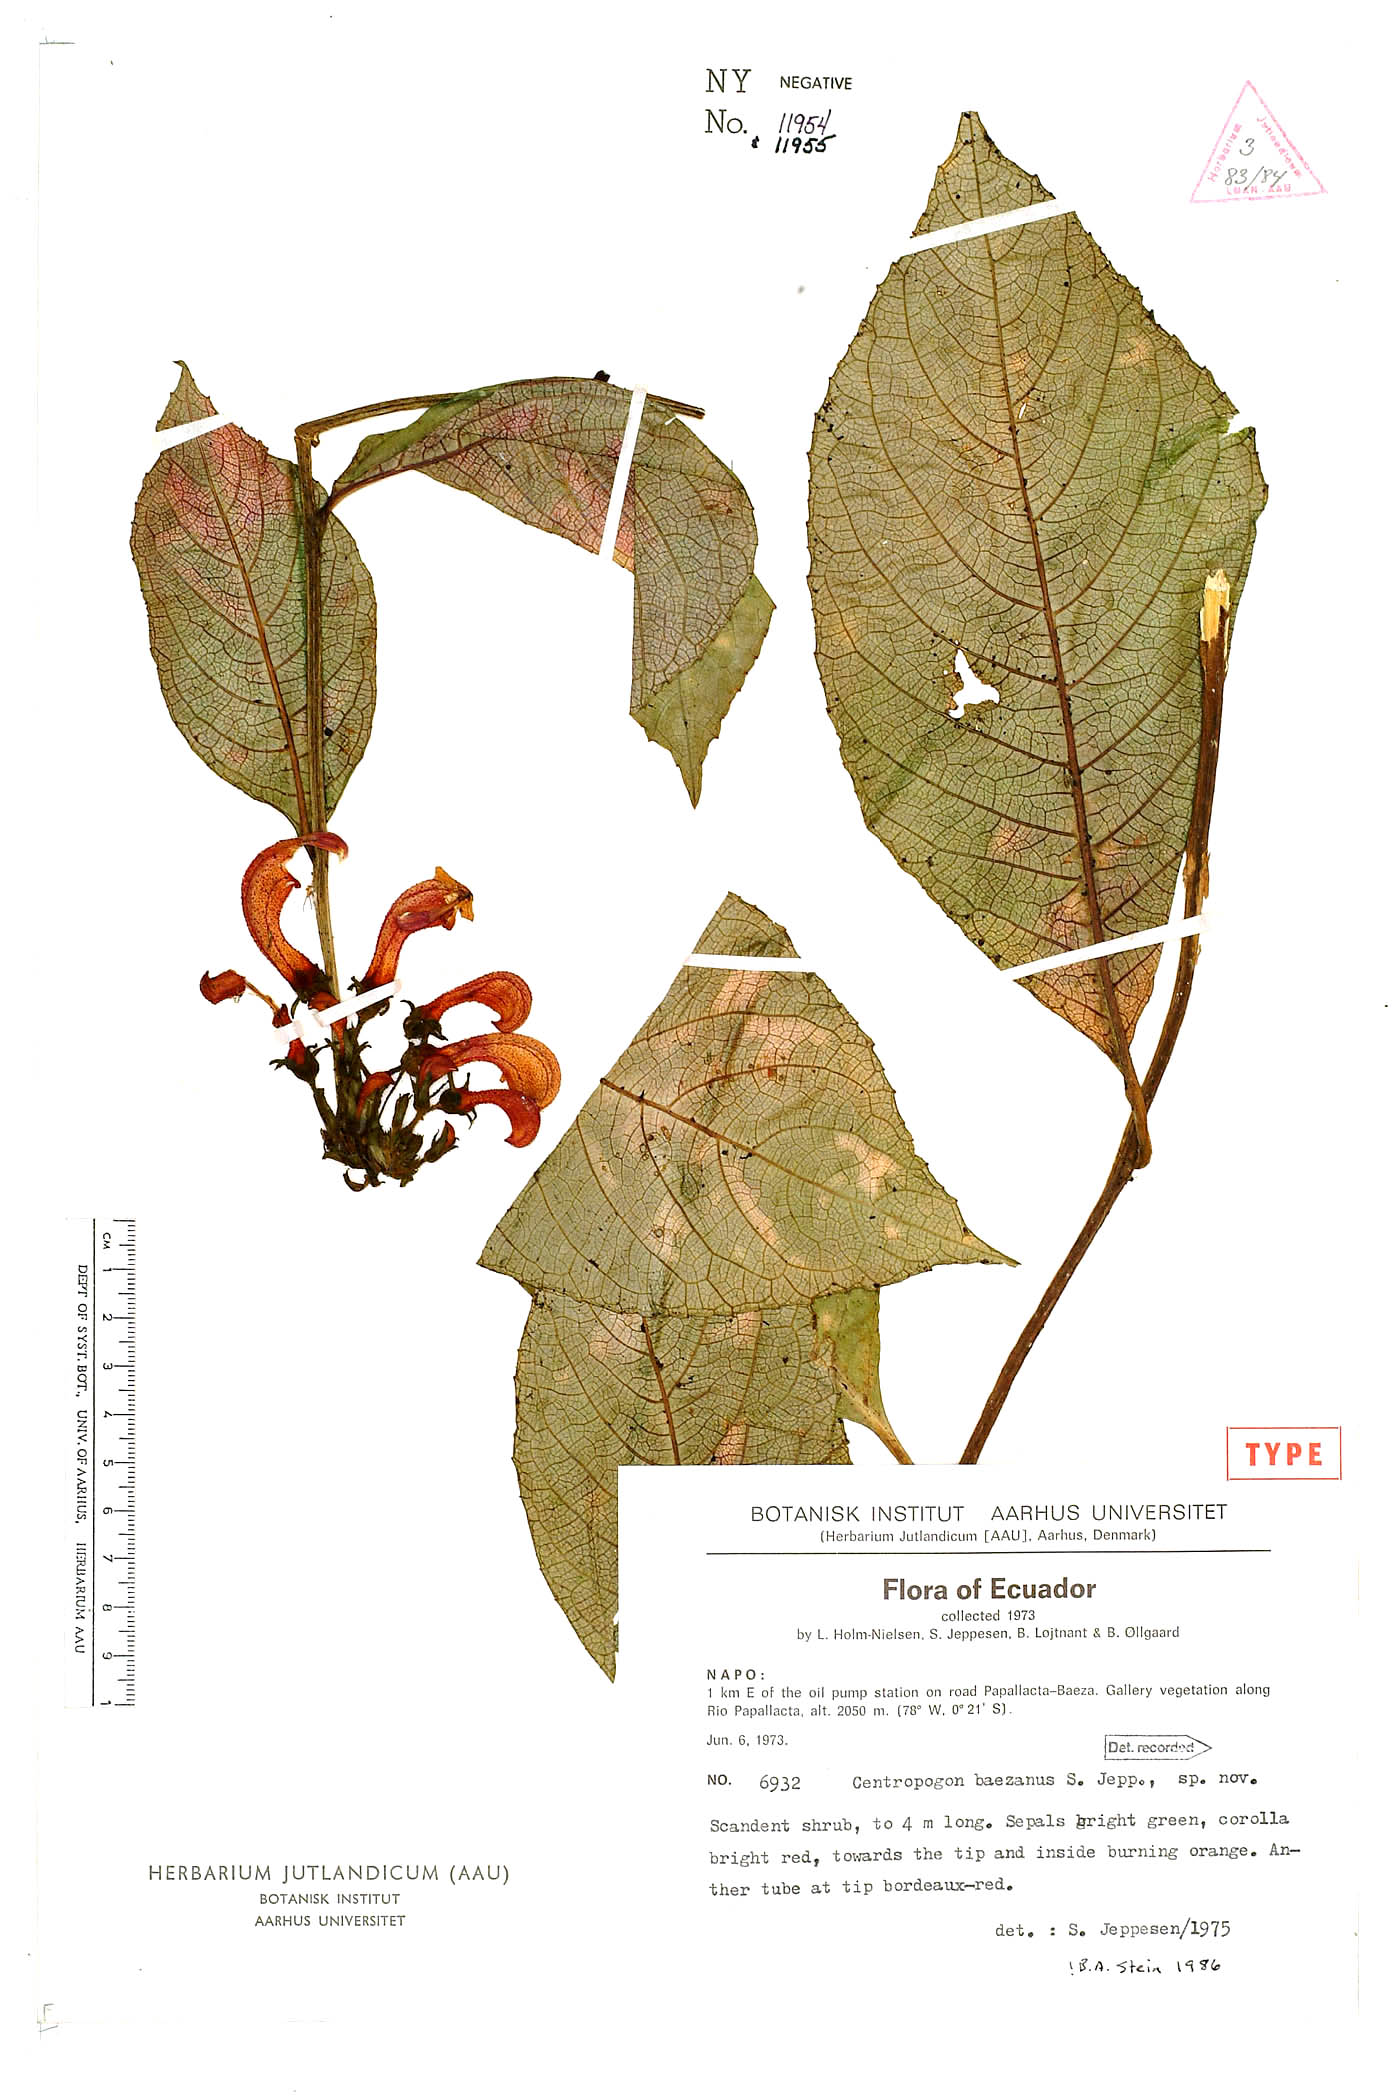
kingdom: Plantae
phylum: Tracheophyta
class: Magnoliopsida
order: Asterales
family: Campanulaceae
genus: Centropogon
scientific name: Centropogon baezanus
